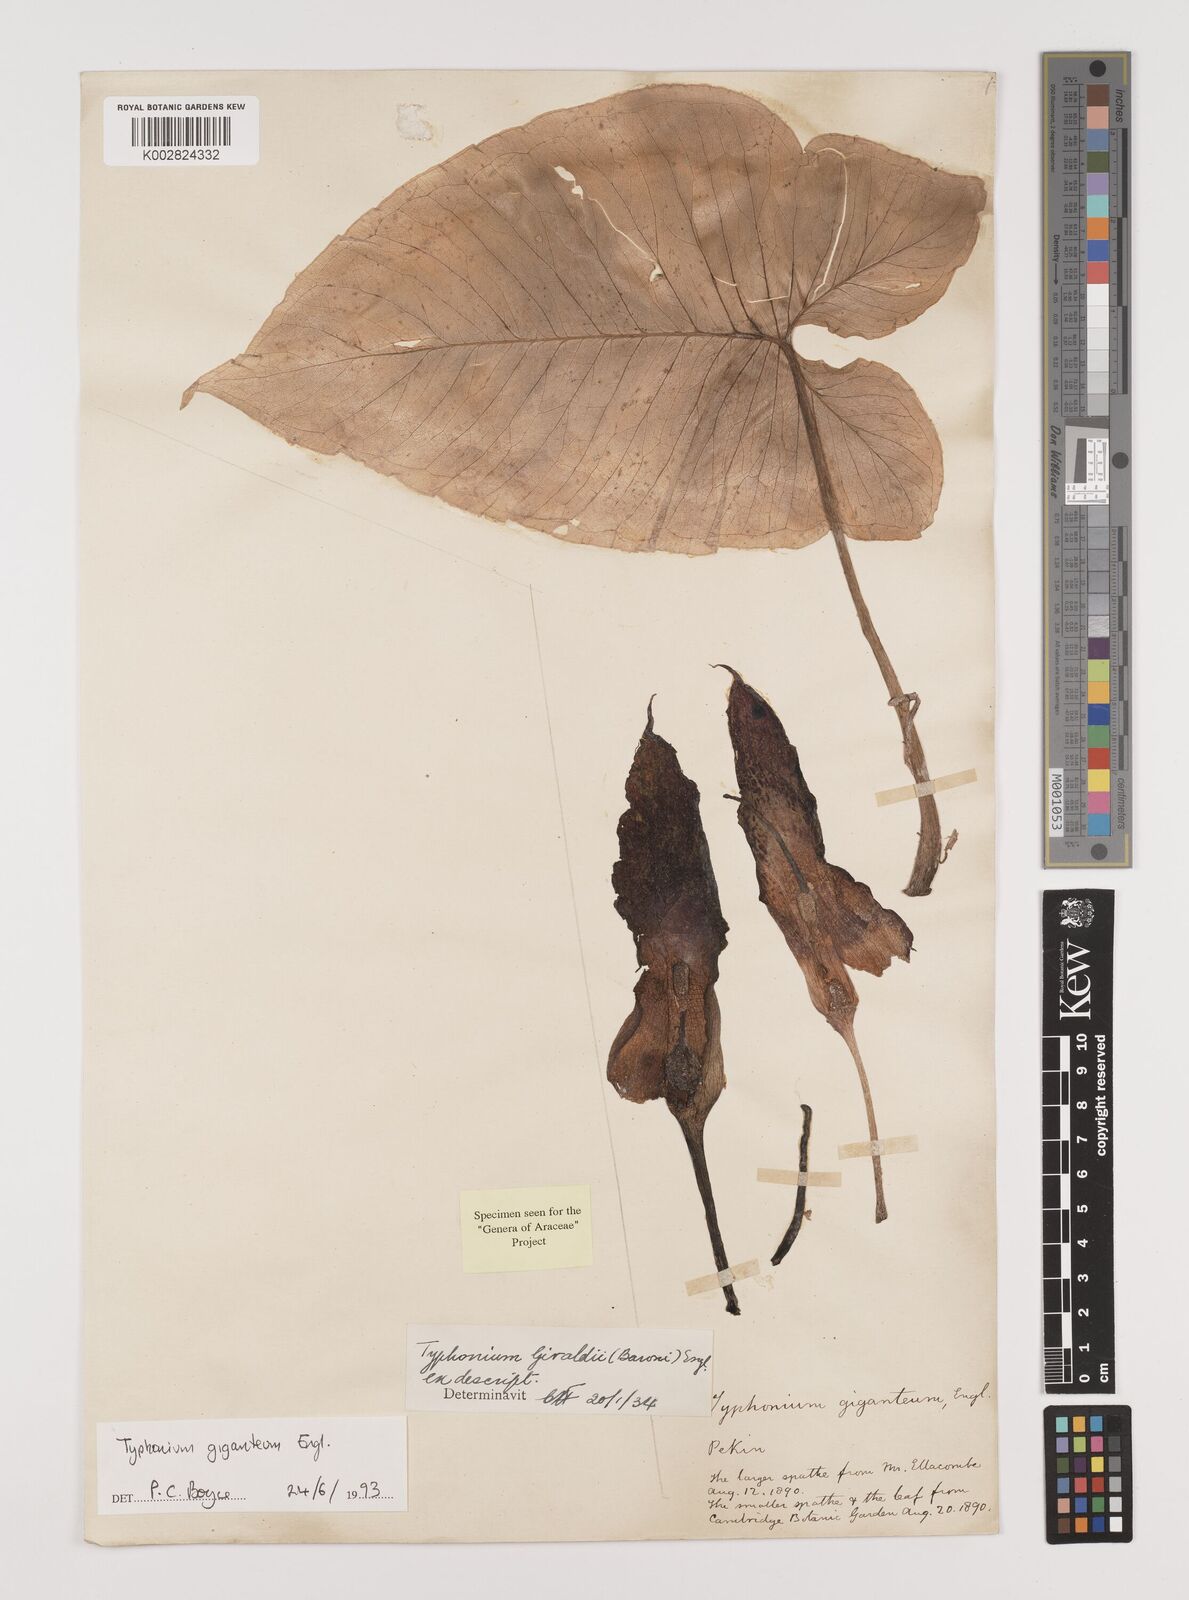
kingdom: Plantae
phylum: Tracheophyta
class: Liliopsida
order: Alismatales
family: Araceae
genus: Sauromatum
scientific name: Sauromatum giganteum
